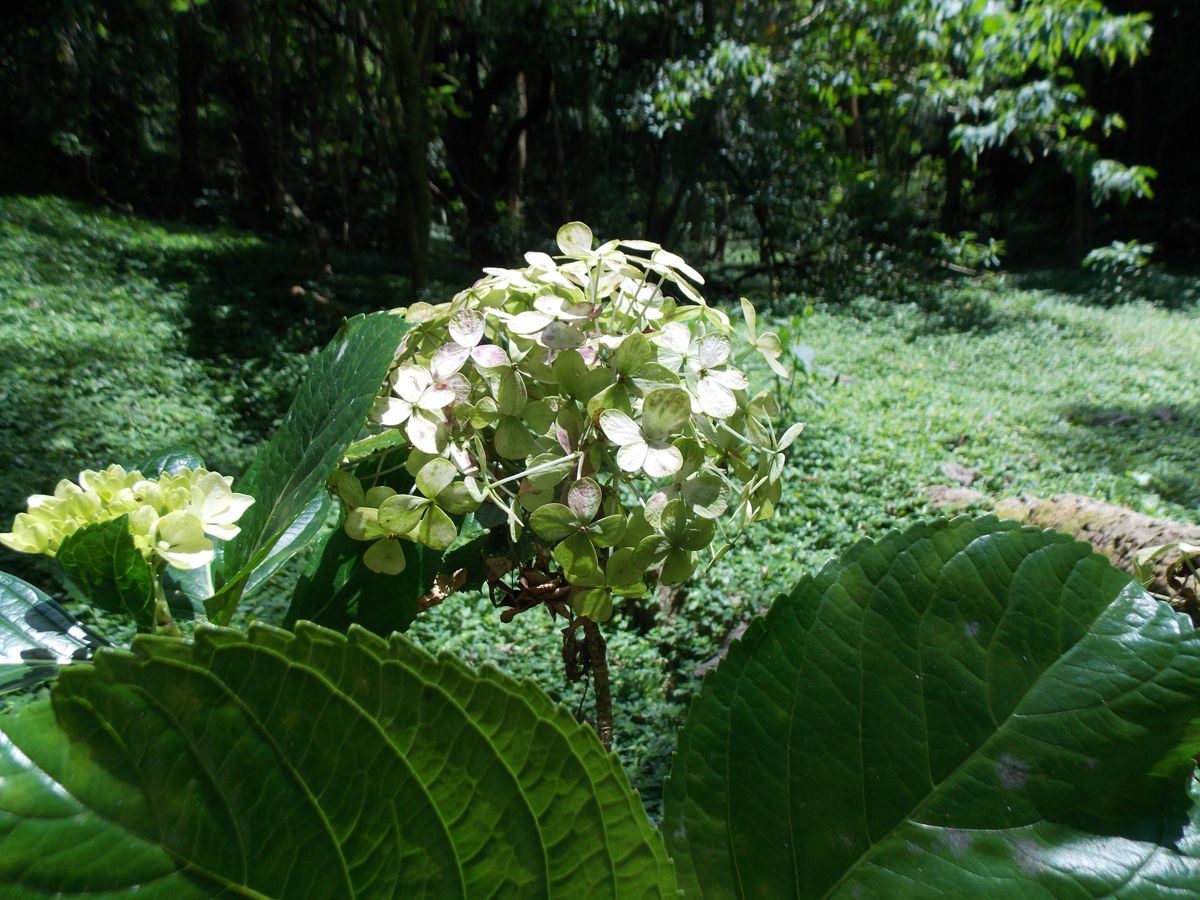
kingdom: Plantae
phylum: Tracheophyta
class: Magnoliopsida
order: Cornales
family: Hydrangeaceae
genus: Hydrangea
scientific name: Hydrangea macrophylla
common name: Hydrangea
